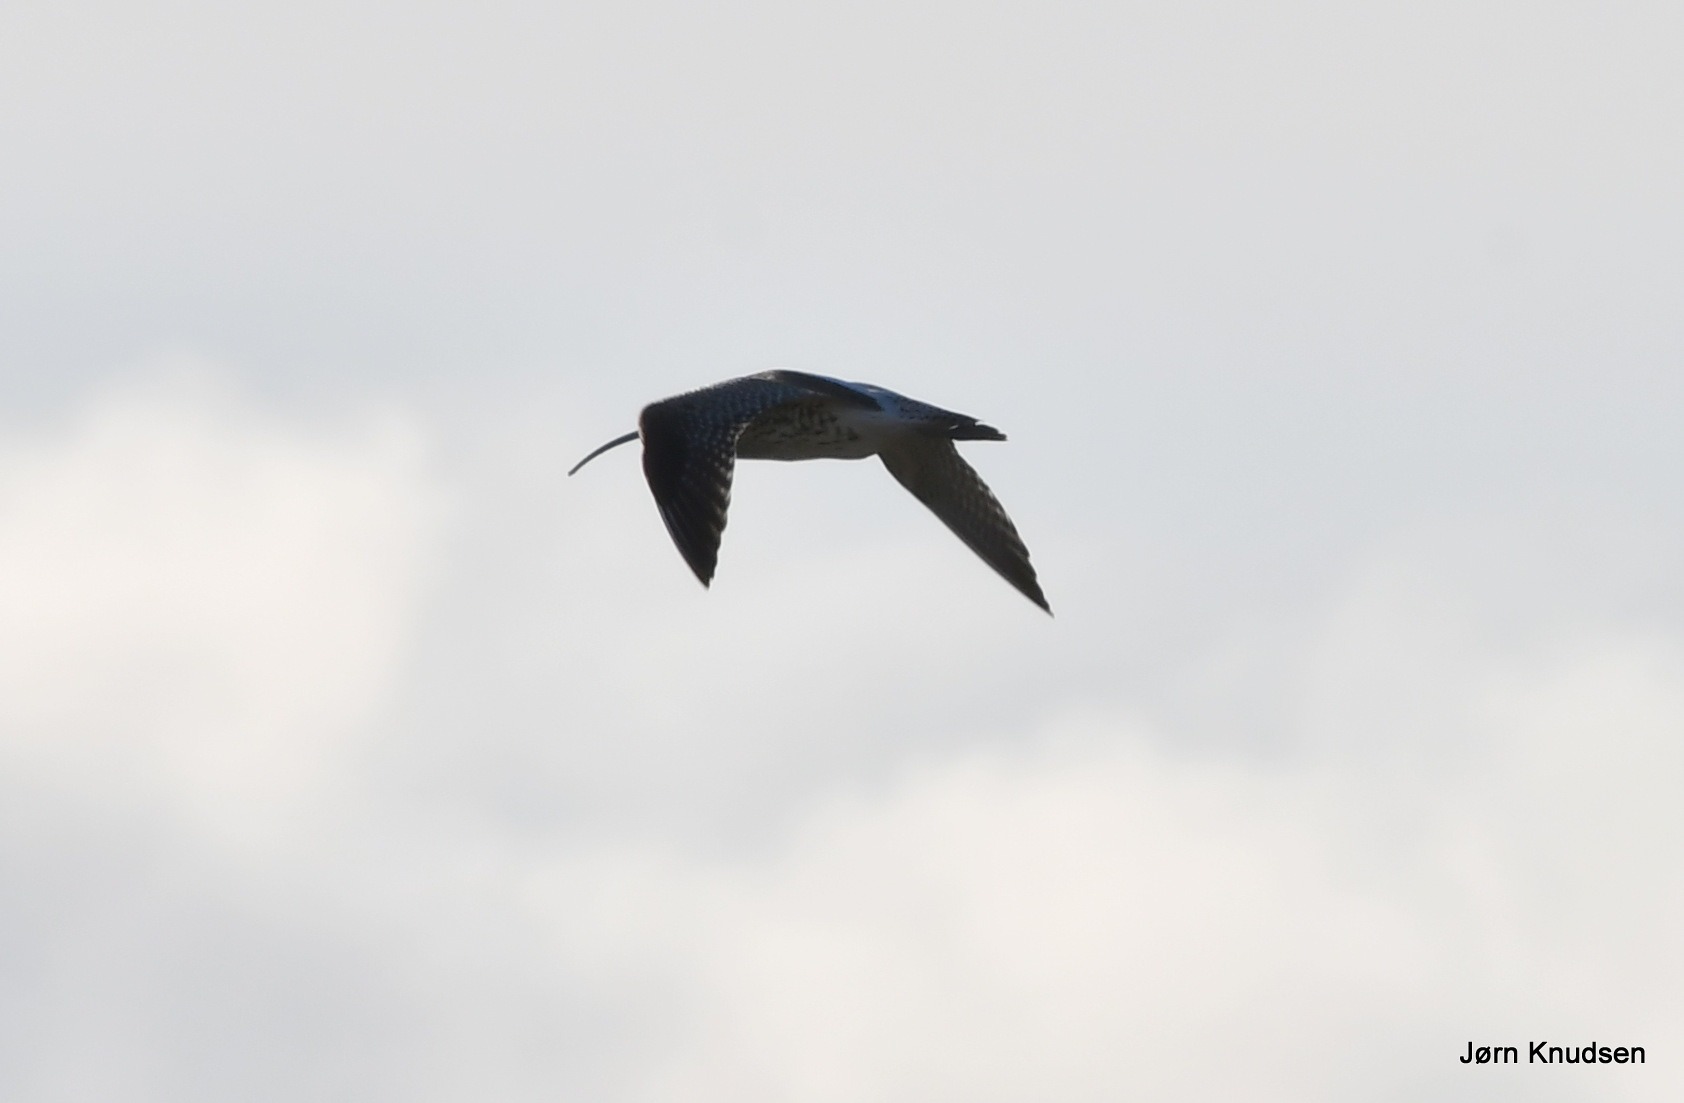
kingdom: Animalia
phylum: Chordata
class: Aves
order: Charadriiformes
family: Scolopacidae
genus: Numenius
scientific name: Numenius arquata
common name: Storspove
